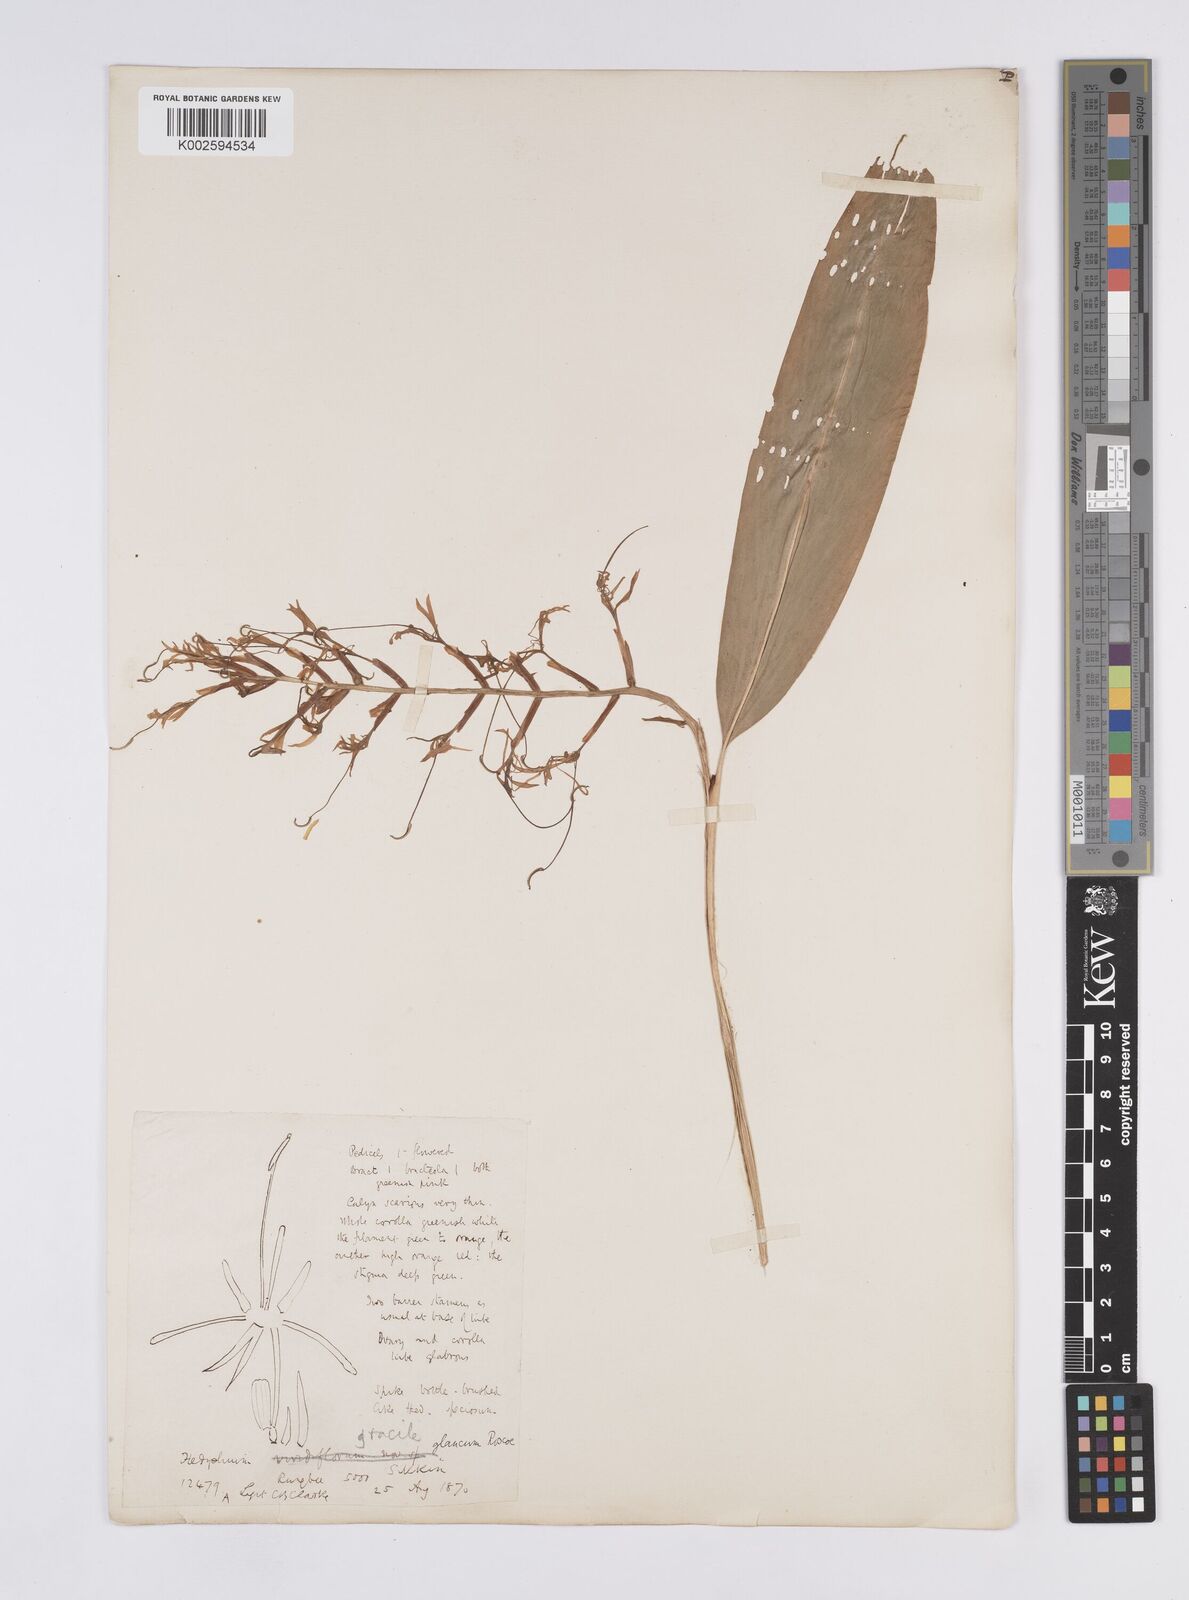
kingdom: Plantae
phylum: Tracheophyta
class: Liliopsida
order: Zingiberales
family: Zingiberaceae
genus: Hedychium
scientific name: Hedychium glaucum
